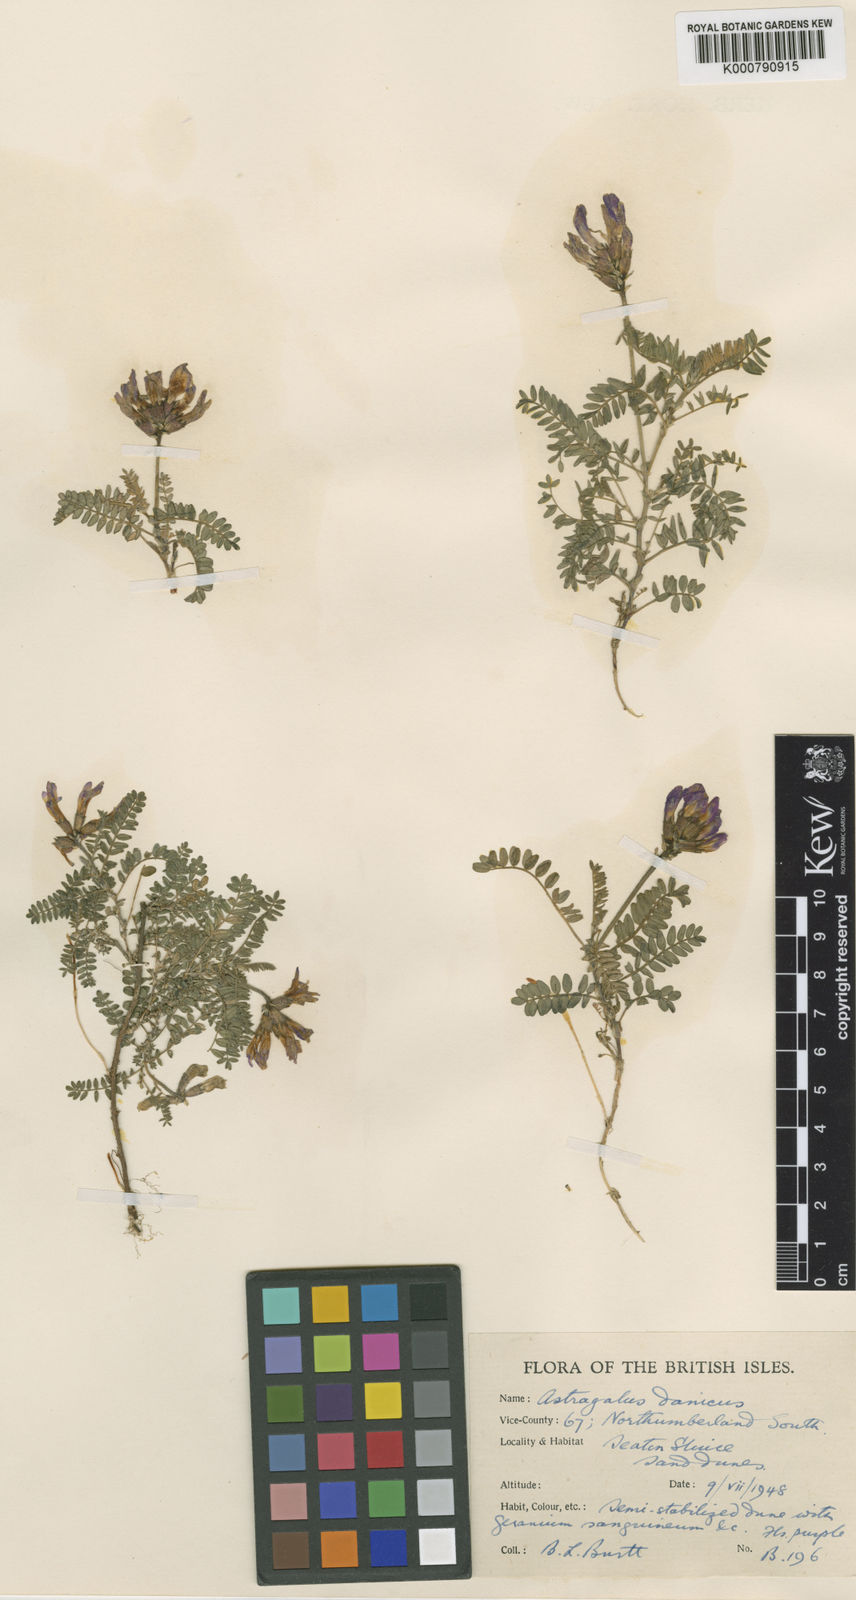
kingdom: Plantae
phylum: Tracheophyta
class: Magnoliopsida
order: Fabales
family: Fabaceae
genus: Astragalus
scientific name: Astragalus danicus
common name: Purple milk-vetch
